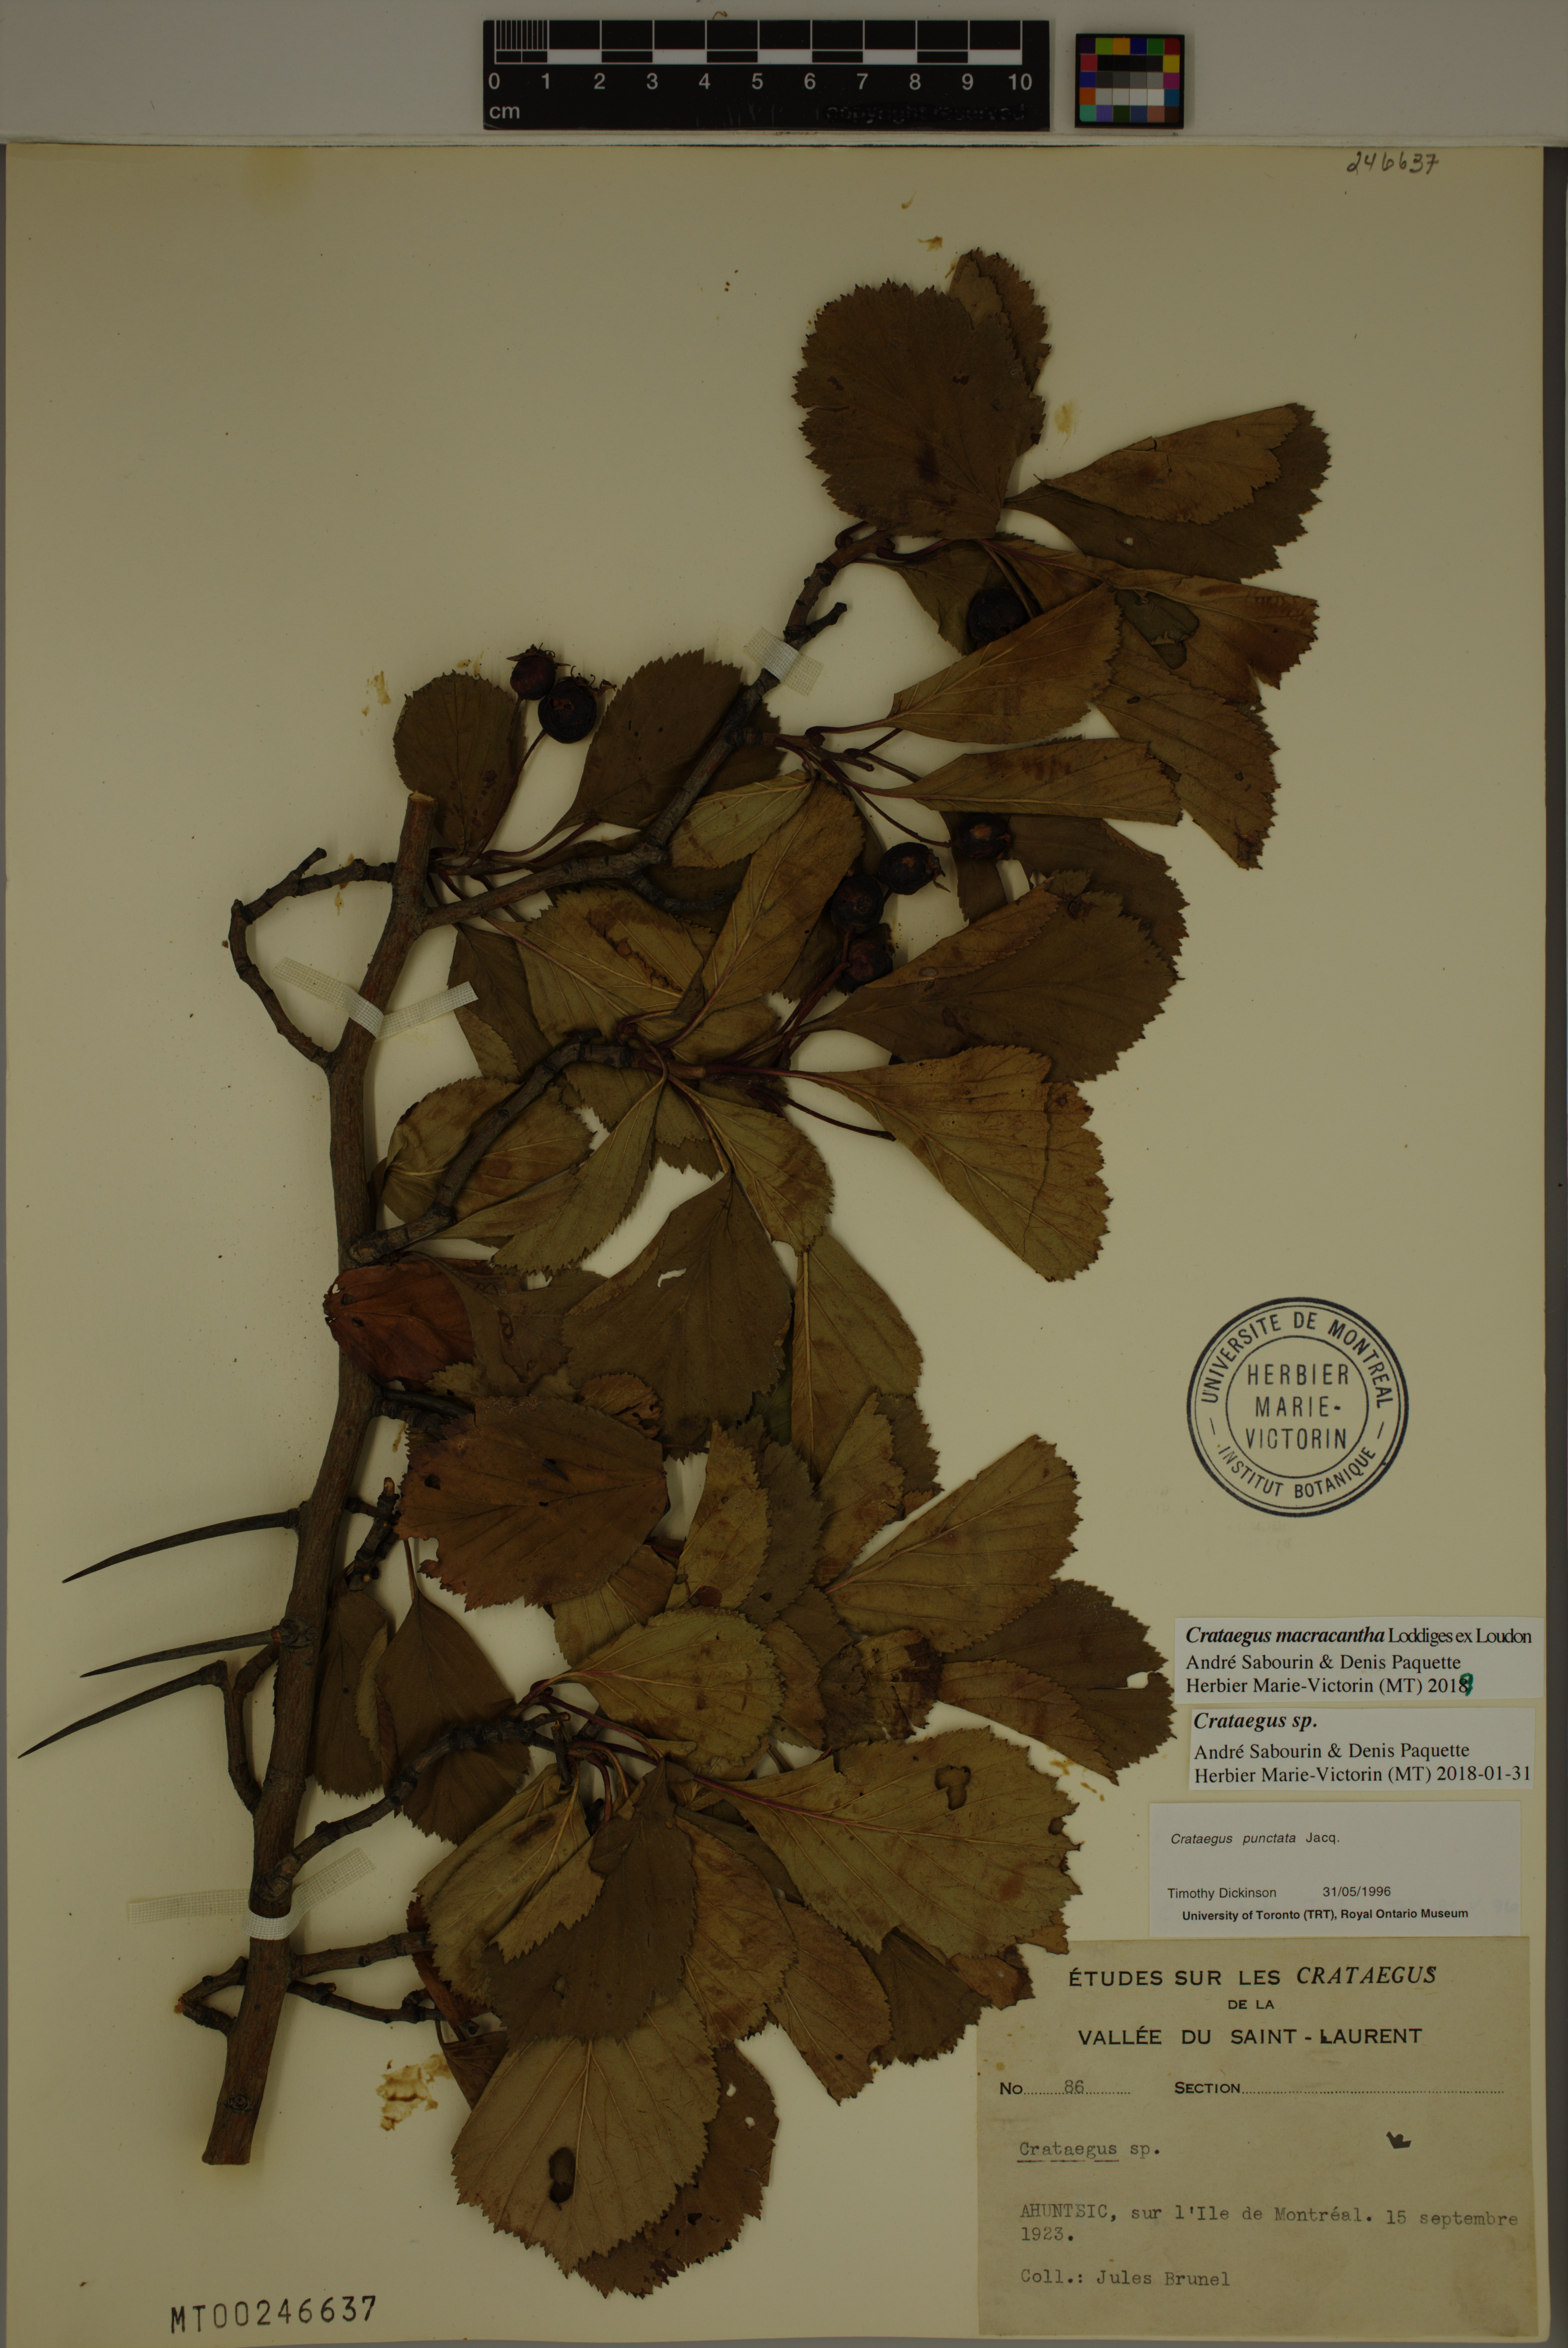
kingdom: Plantae
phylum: Tracheophyta
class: Magnoliopsida
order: Rosales
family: Rosaceae
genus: Crataegus
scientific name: Crataegus macracantha
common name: Large-thorn hawthorn
